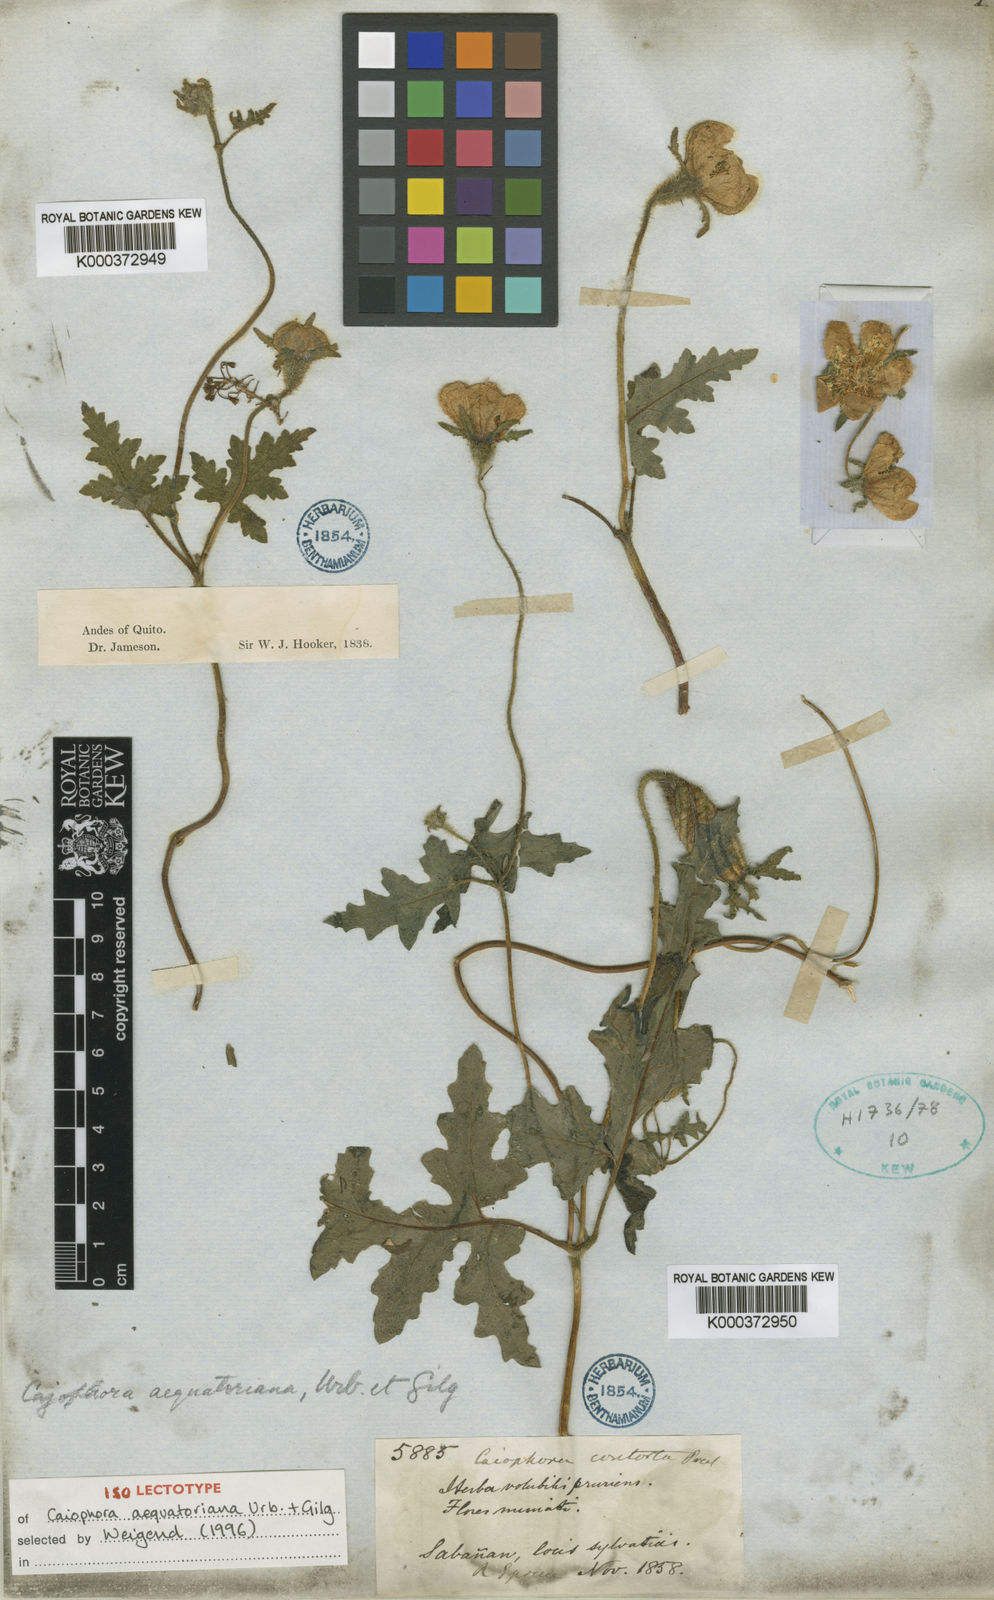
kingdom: Plantae
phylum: Tracheophyta
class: Magnoliopsida
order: Cornales
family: Loasaceae
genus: Caiophora
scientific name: Caiophora contorta
